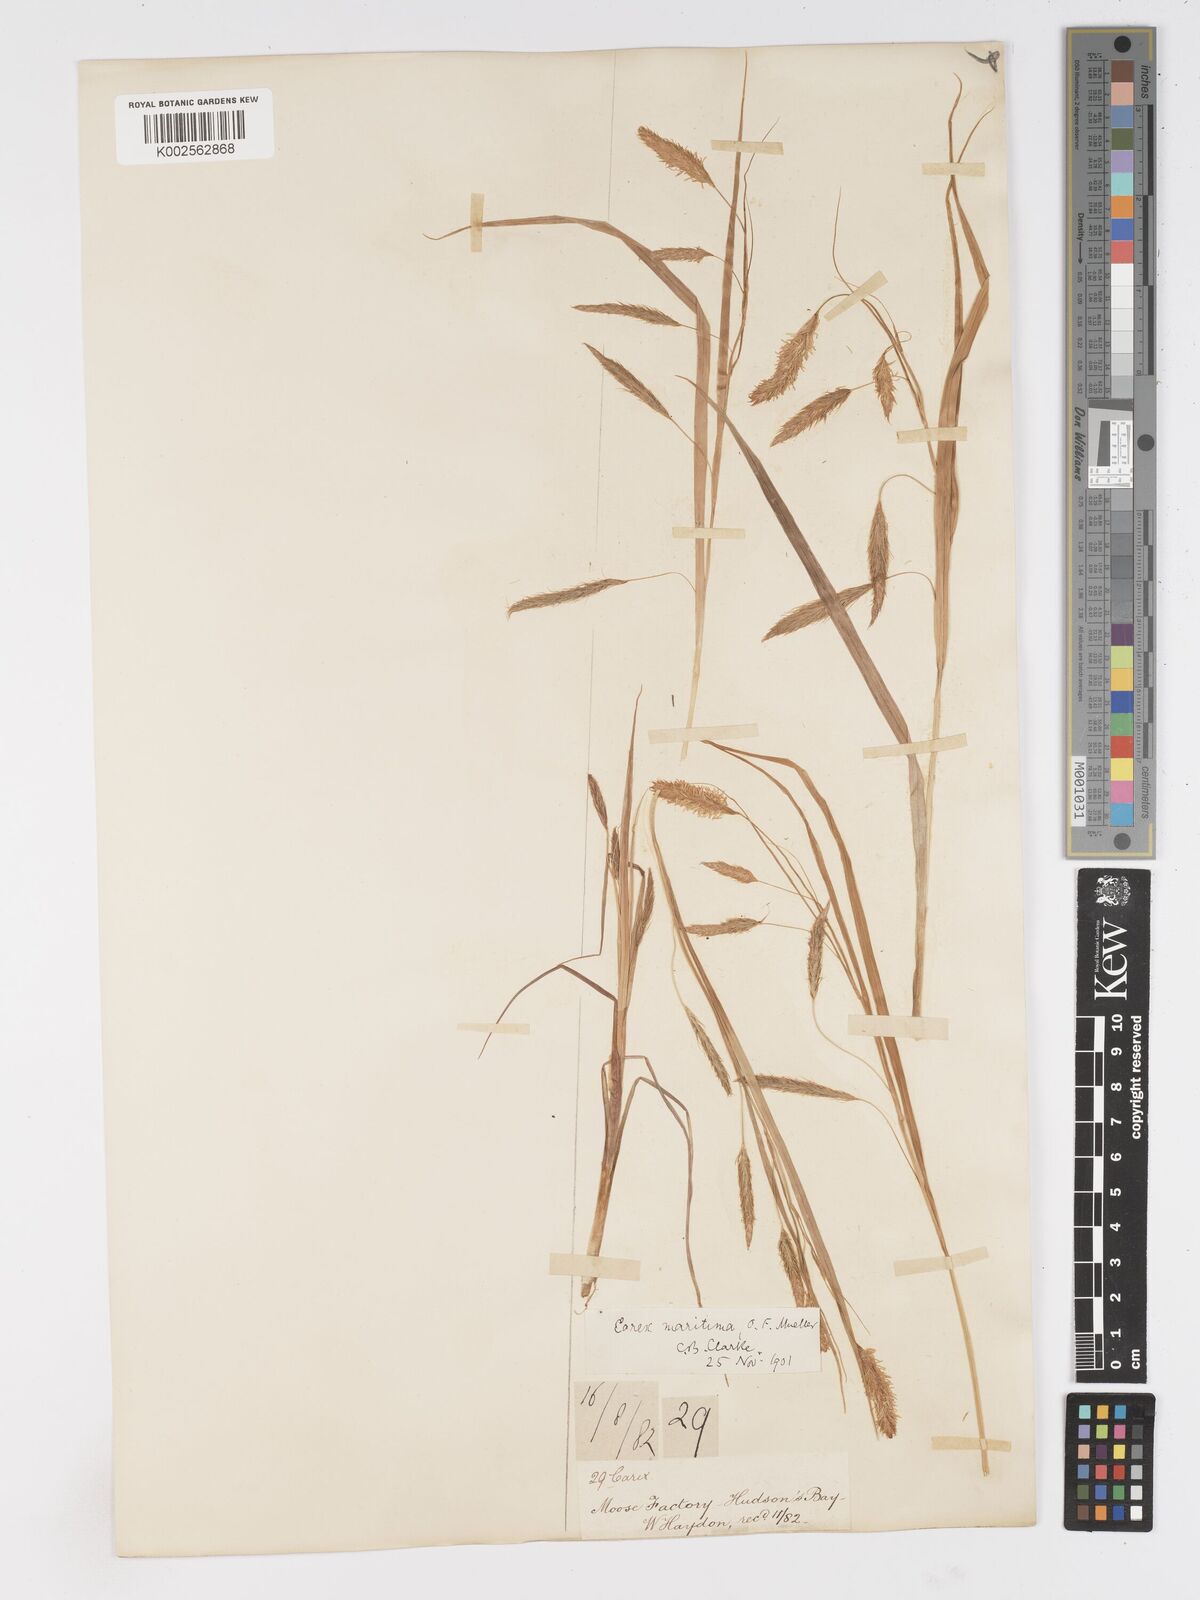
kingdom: Plantae
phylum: Tracheophyta
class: Liliopsida
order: Poales
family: Cyperaceae
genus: Carex
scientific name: Carex paleacea
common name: Chaffy sedge
